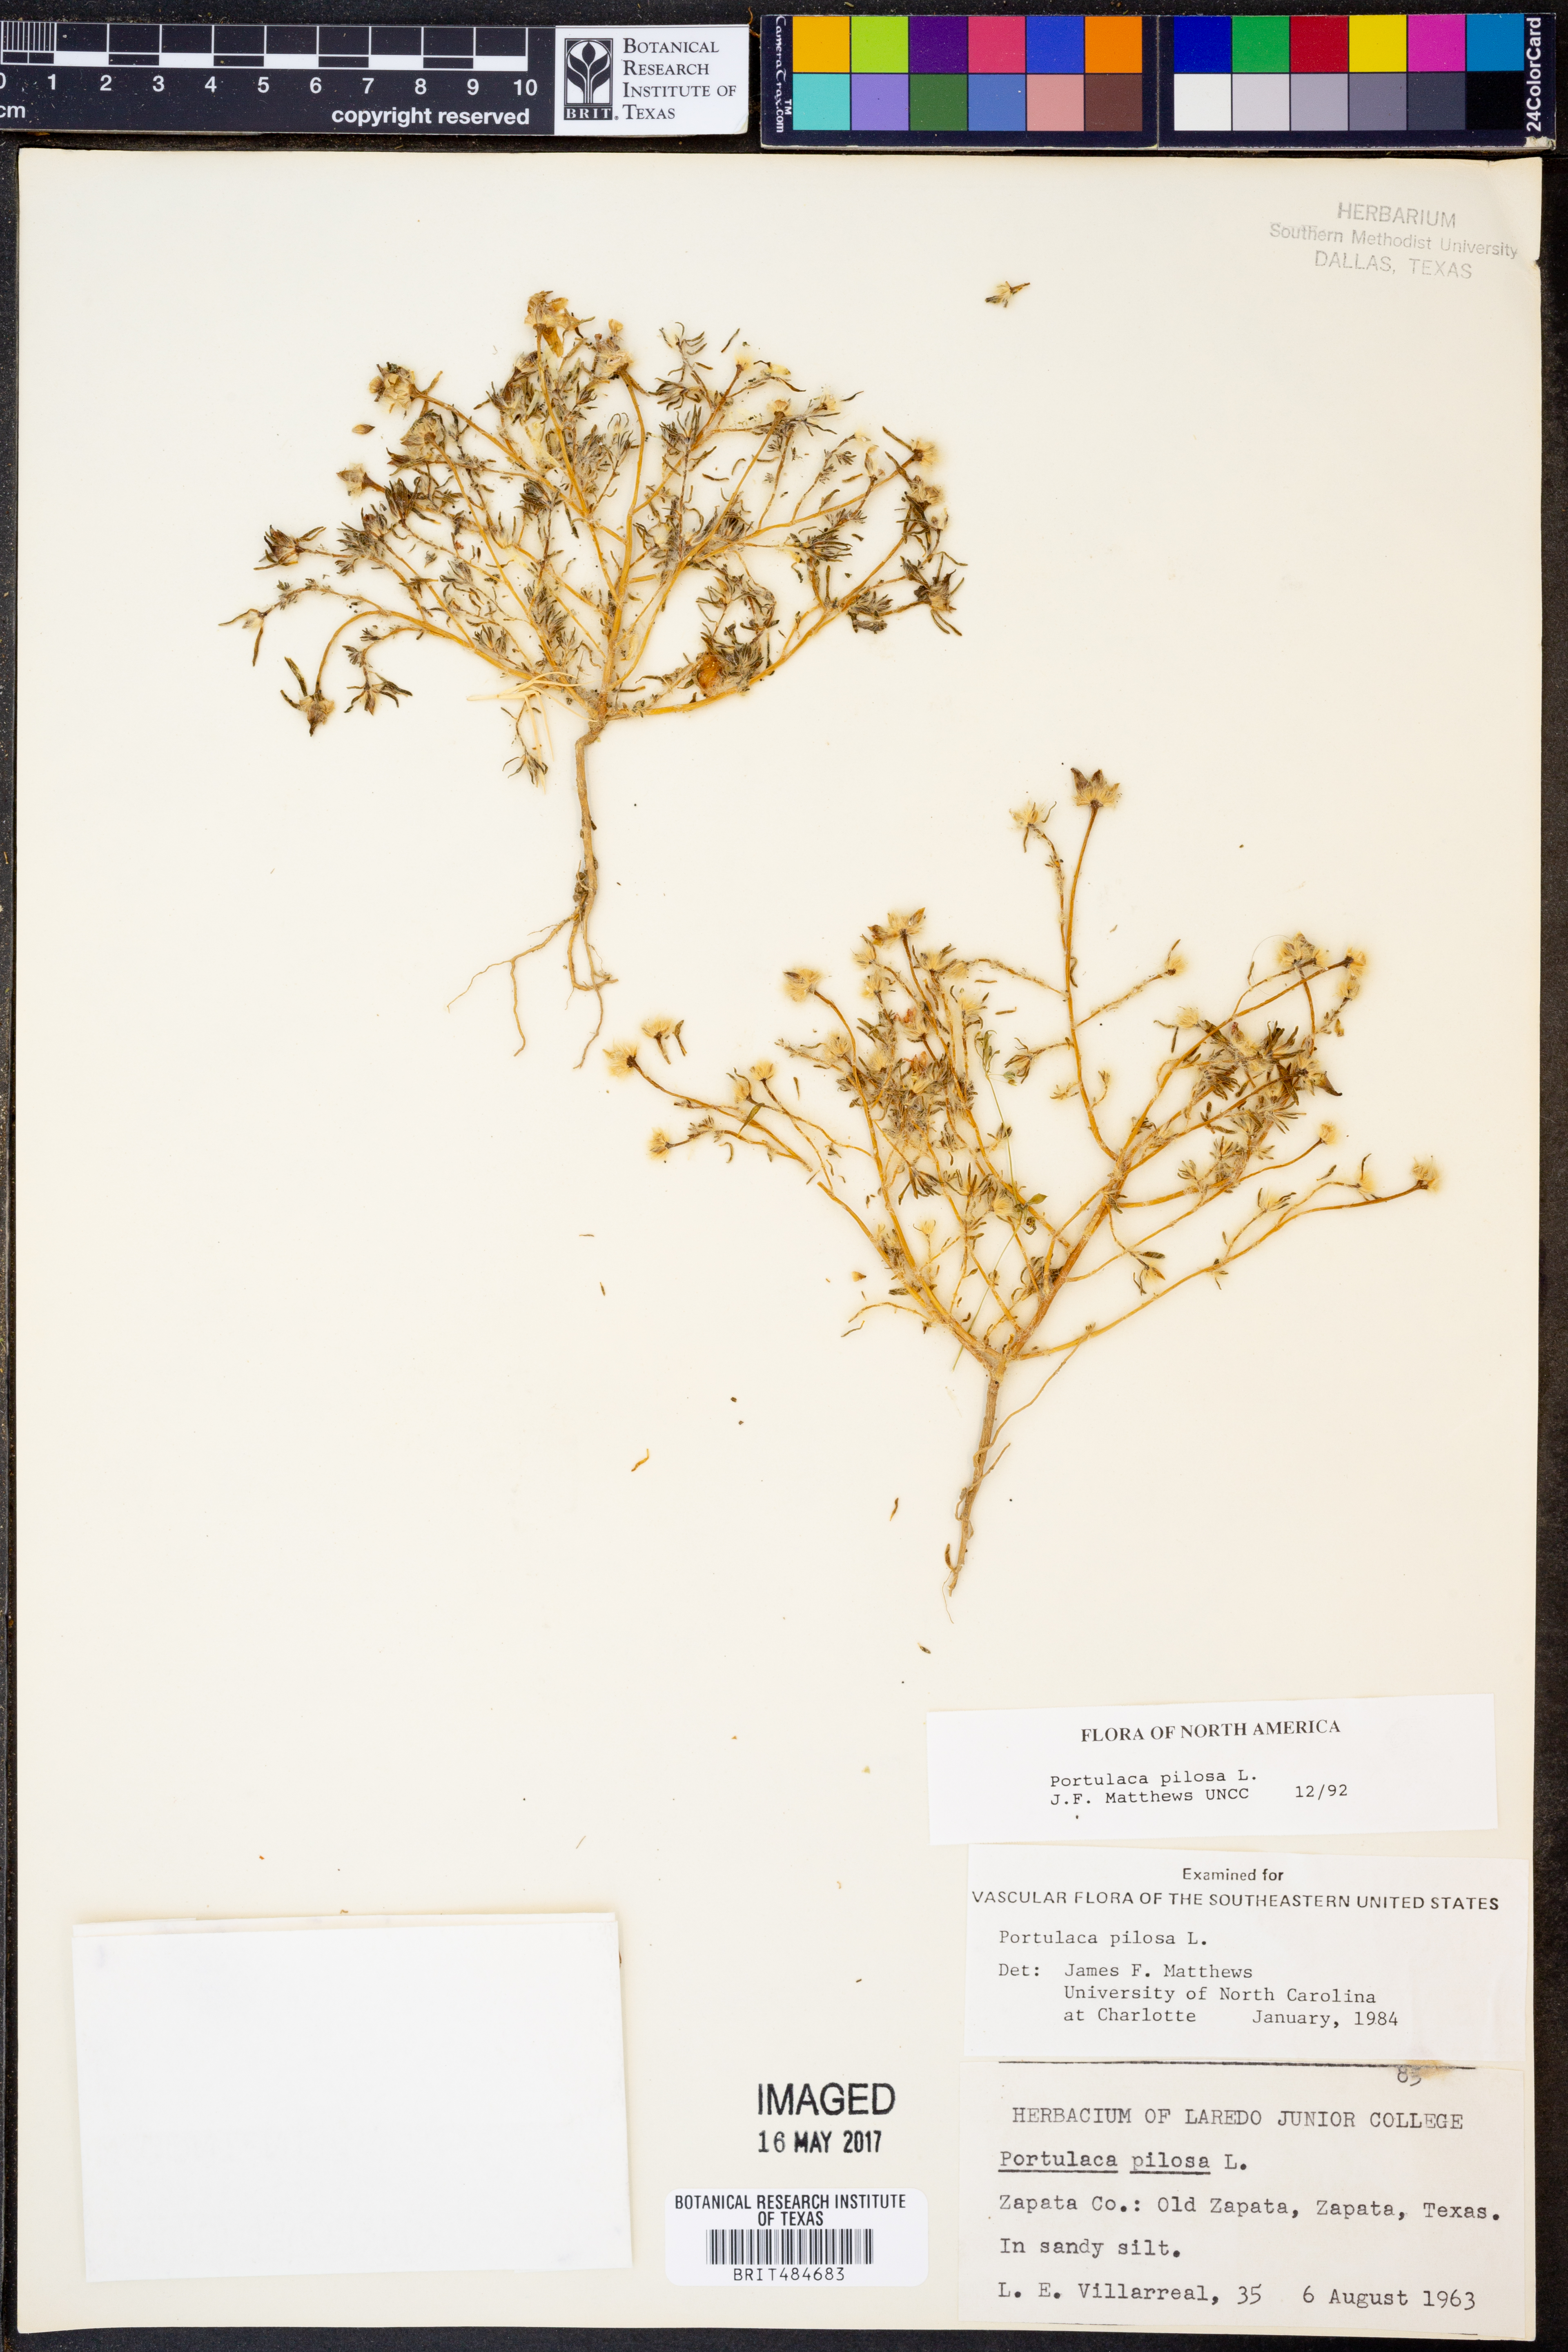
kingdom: Plantae
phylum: Tracheophyta
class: Magnoliopsida
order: Caryophyllales
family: Portulacaceae
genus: Portulaca
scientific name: Portulaca pilosa
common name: Kiss me quick
